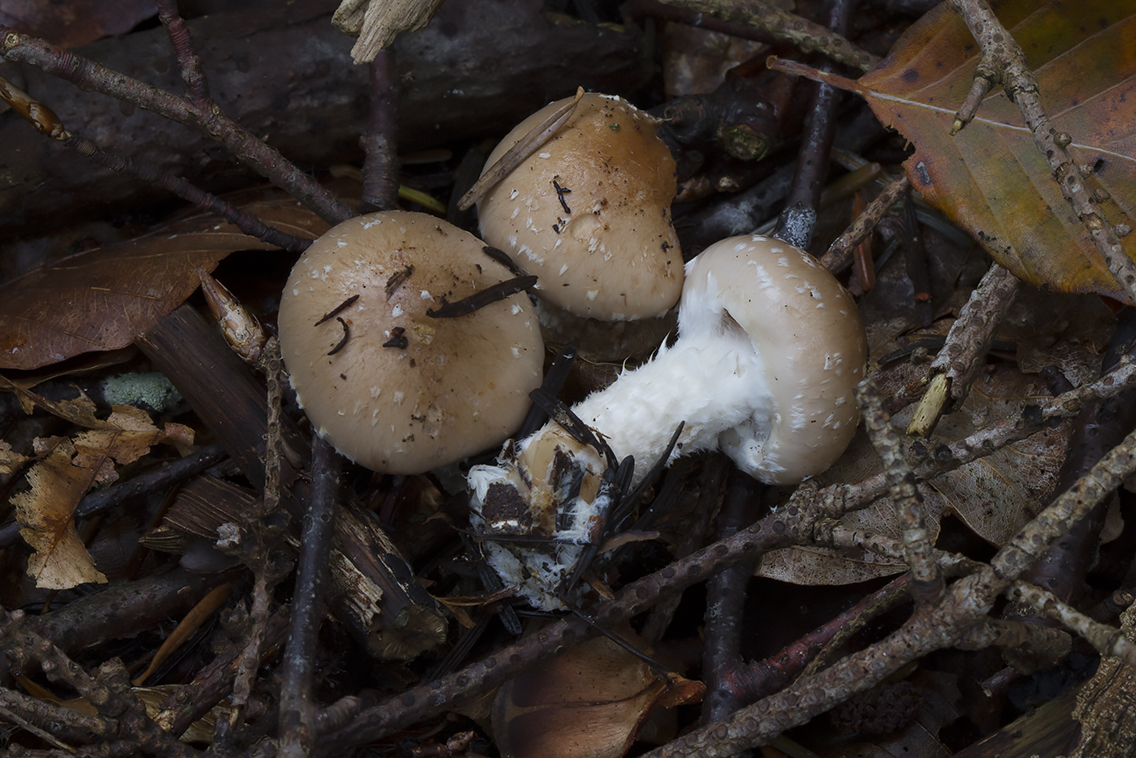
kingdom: Fungi
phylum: Basidiomycota
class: Agaricomycetes
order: Agaricales
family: Strophariaceae
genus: Pholiota
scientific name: Pholiota lenta
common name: løv-skælhat
